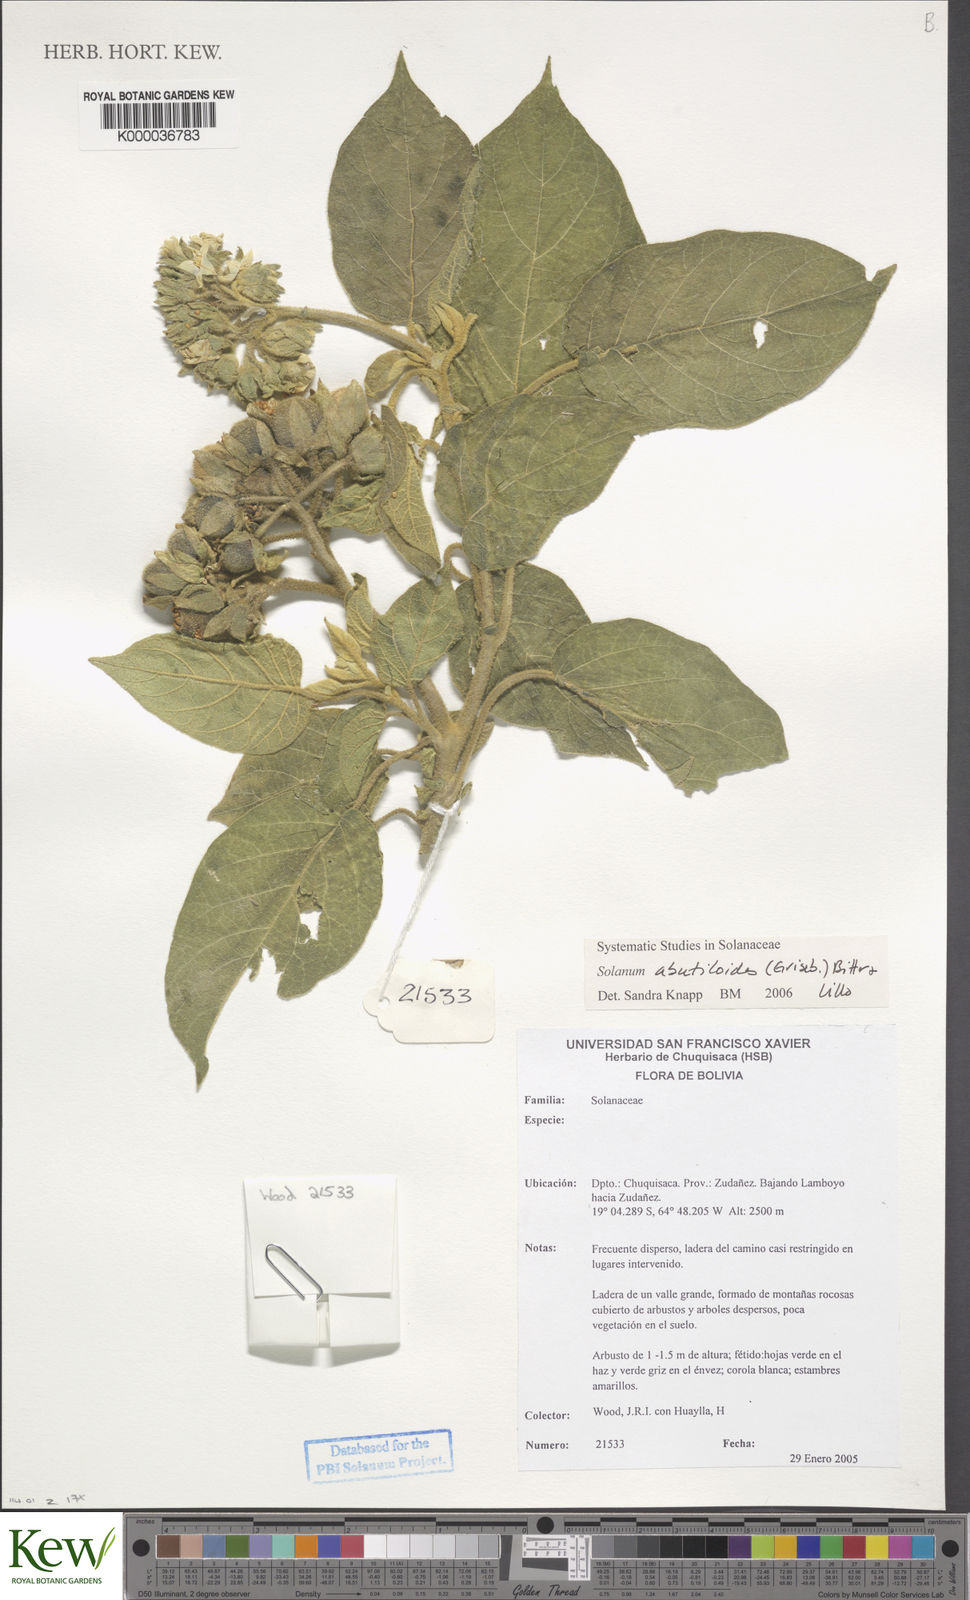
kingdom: Plantae
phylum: Tracheophyta
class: Magnoliopsida
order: Solanales
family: Solanaceae
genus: Solanum
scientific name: Solanum abutiloides
